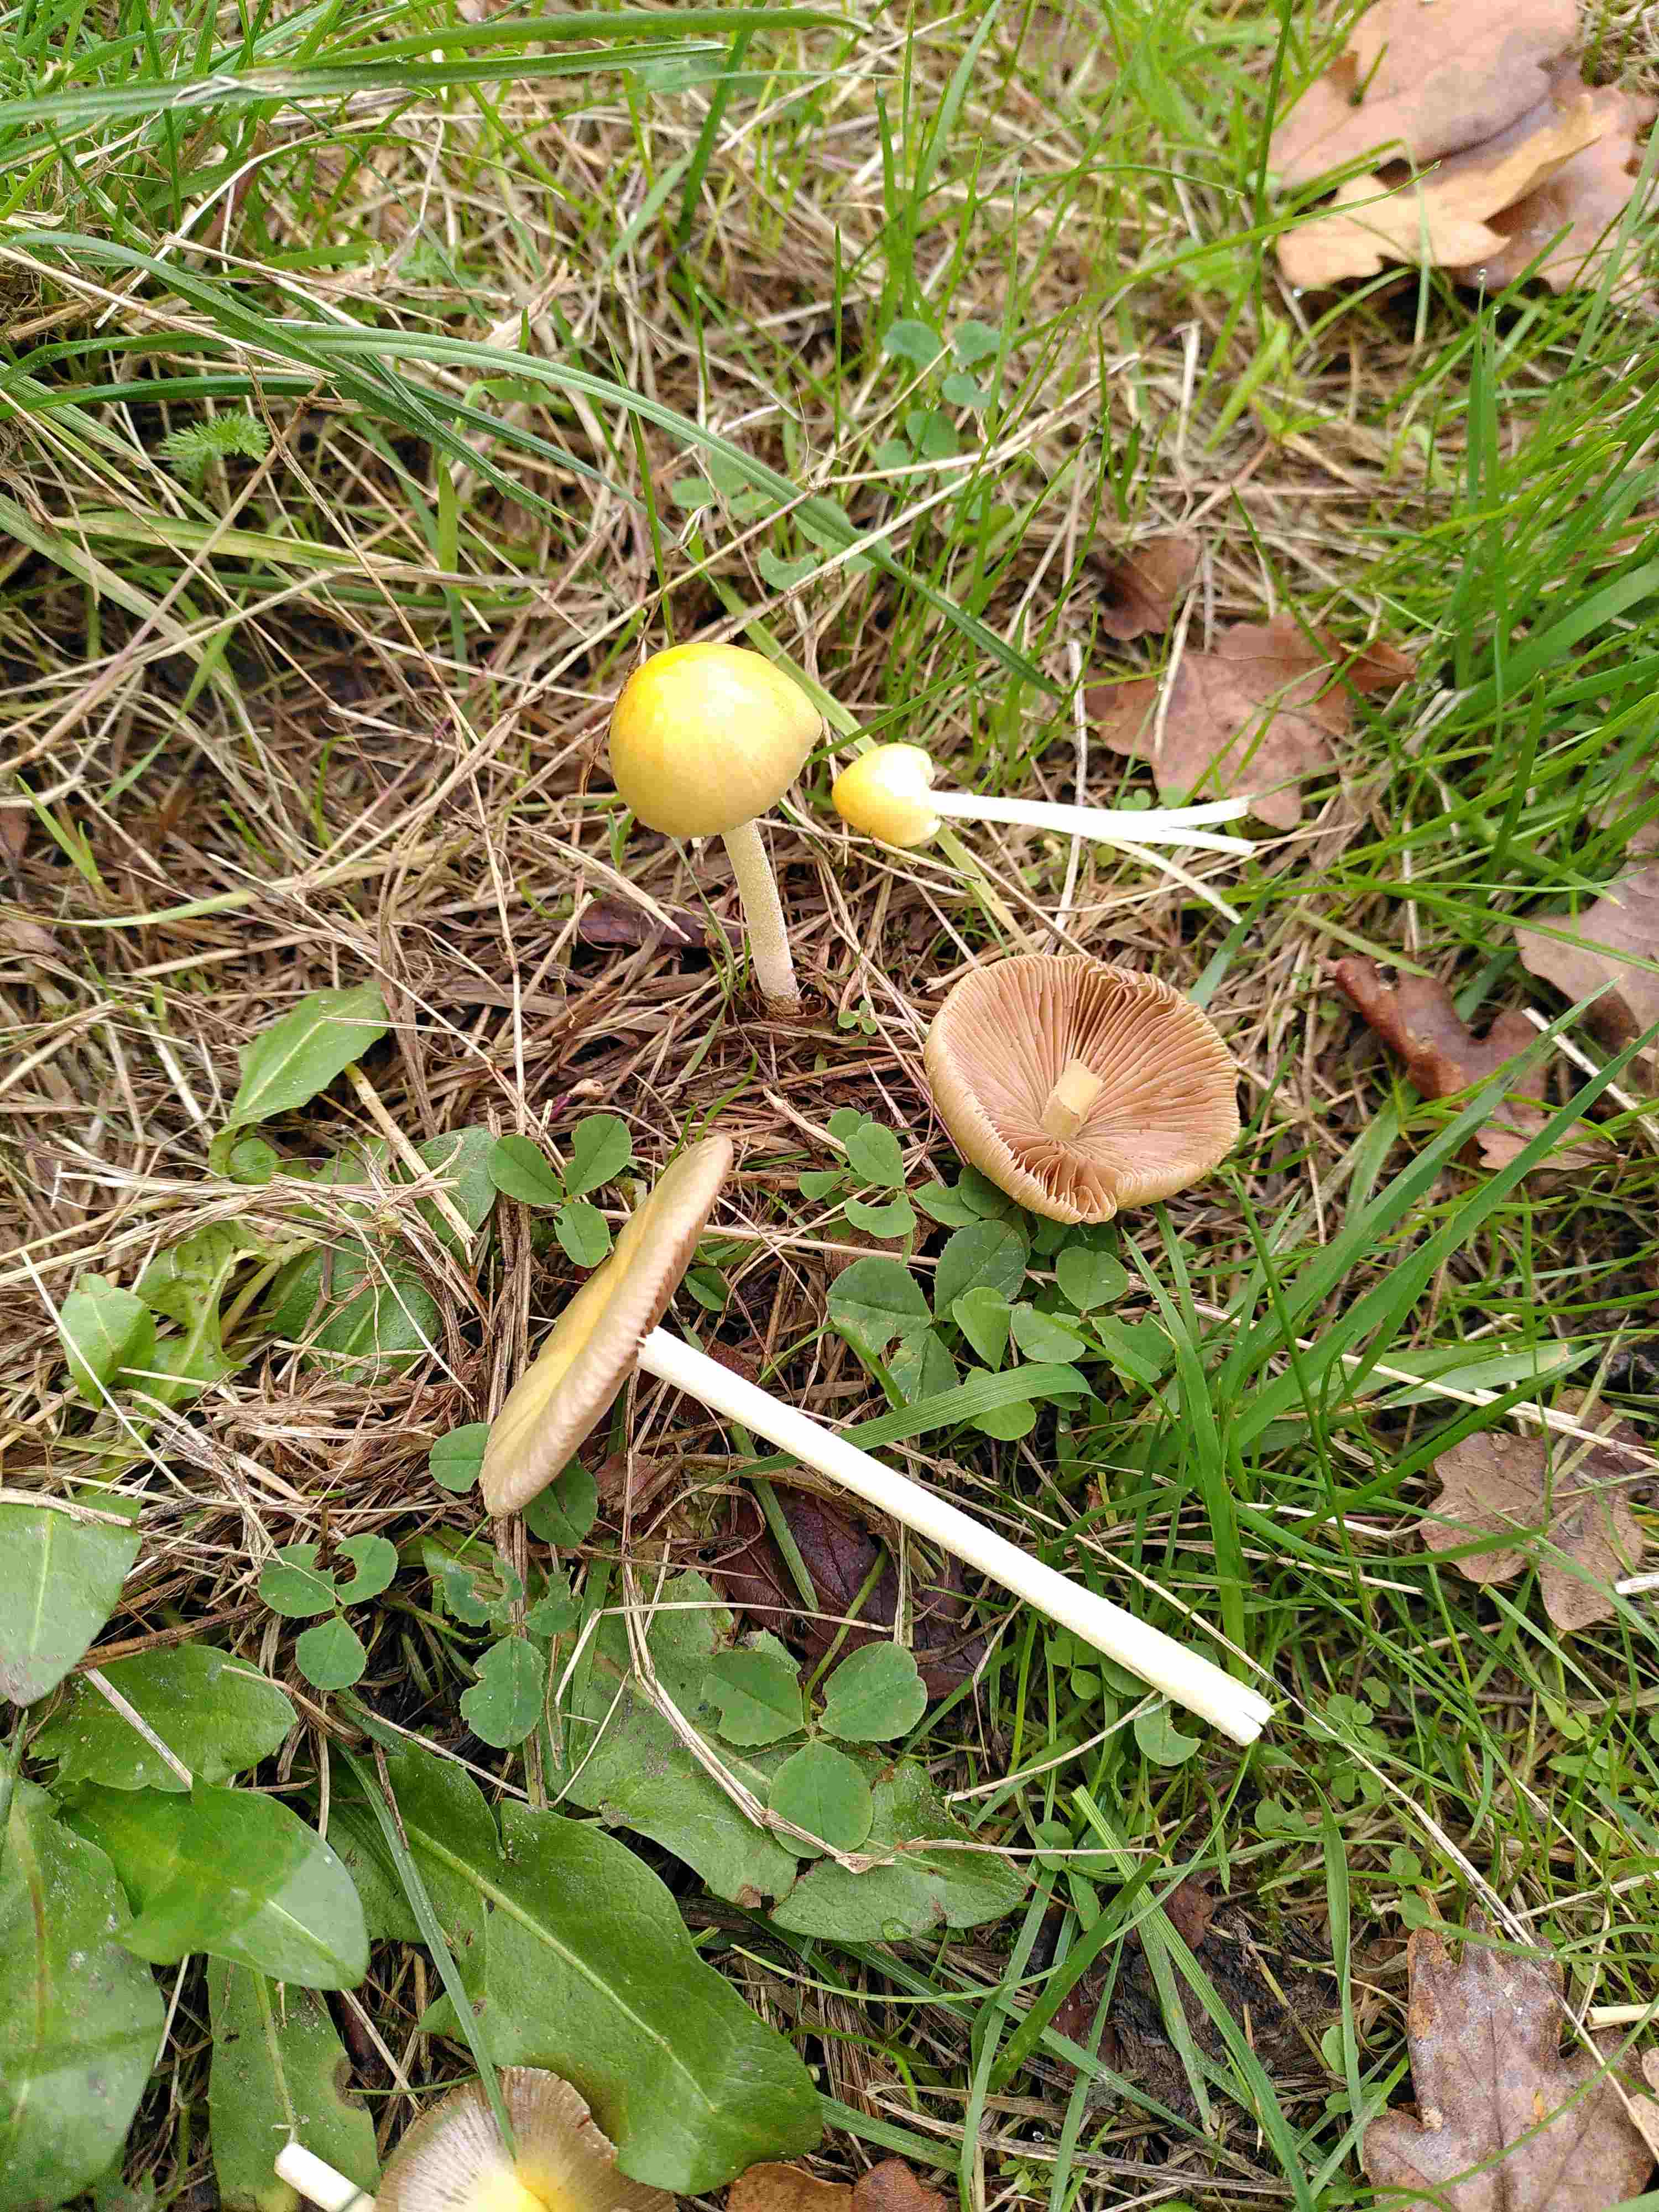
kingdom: Fungi
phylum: Basidiomycota
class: Agaricomycetes
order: Agaricales
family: Bolbitiaceae
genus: Bolbitius
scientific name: Bolbitius titubans
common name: almindelig gulhat
